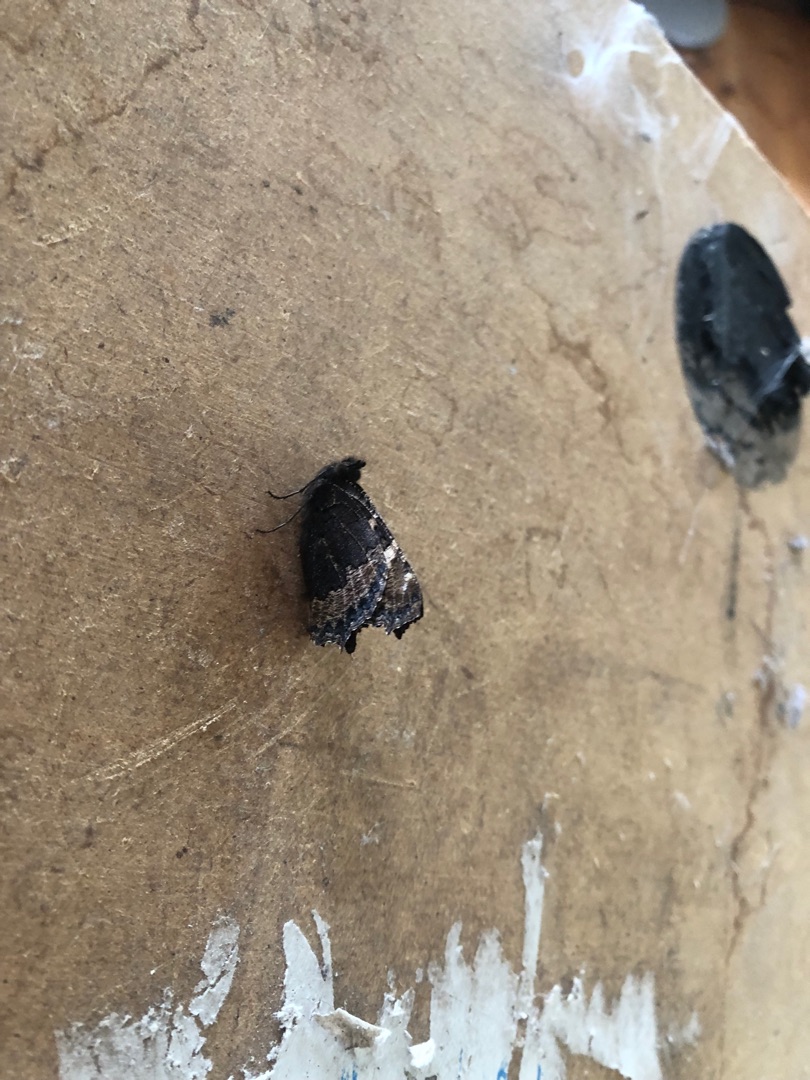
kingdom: Animalia
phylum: Arthropoda
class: Insecta
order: Lepidoptera
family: Nymphalidae
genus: Aglais
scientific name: Aglais urticae
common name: Nældens takvinge
